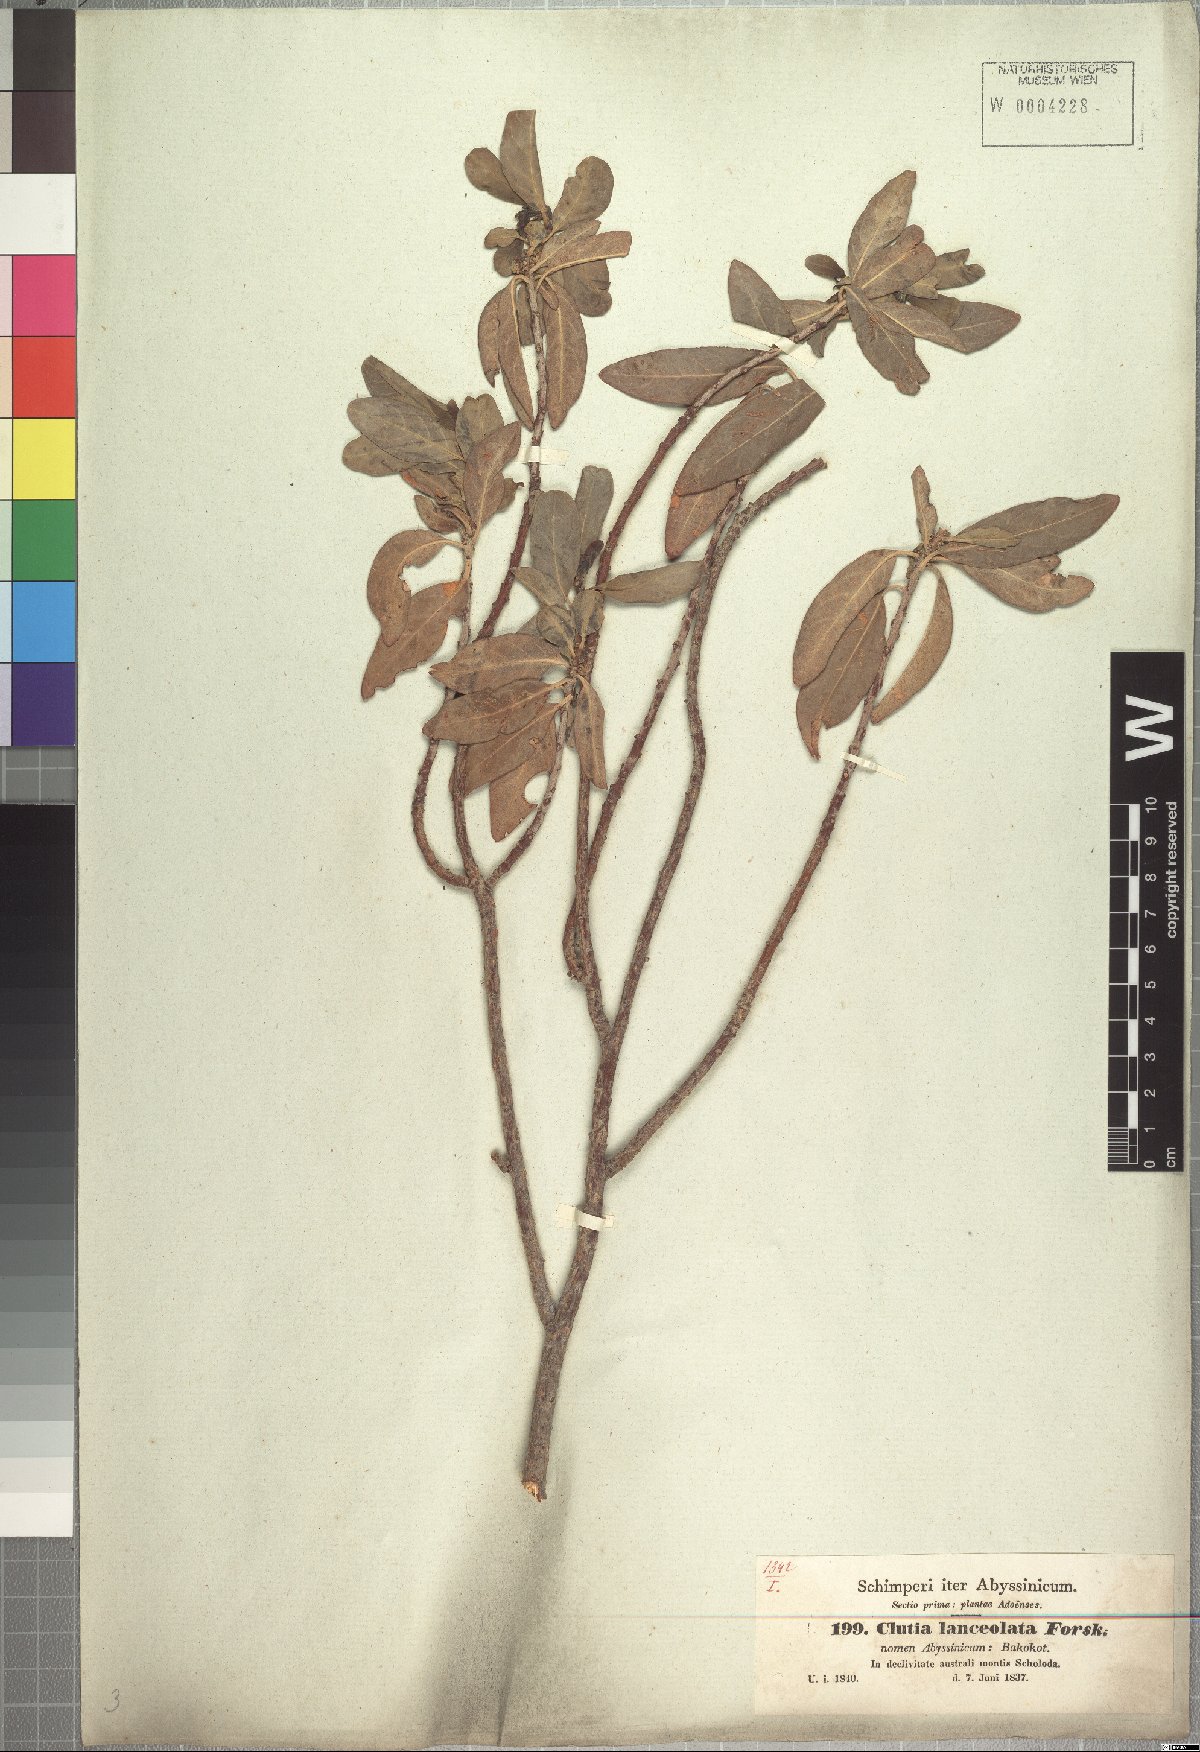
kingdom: Plantae
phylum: Tracheophyta
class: Magnoliopsida
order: Malpighiales
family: Peraceae
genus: Clutia
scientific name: Clutia lanceolata
